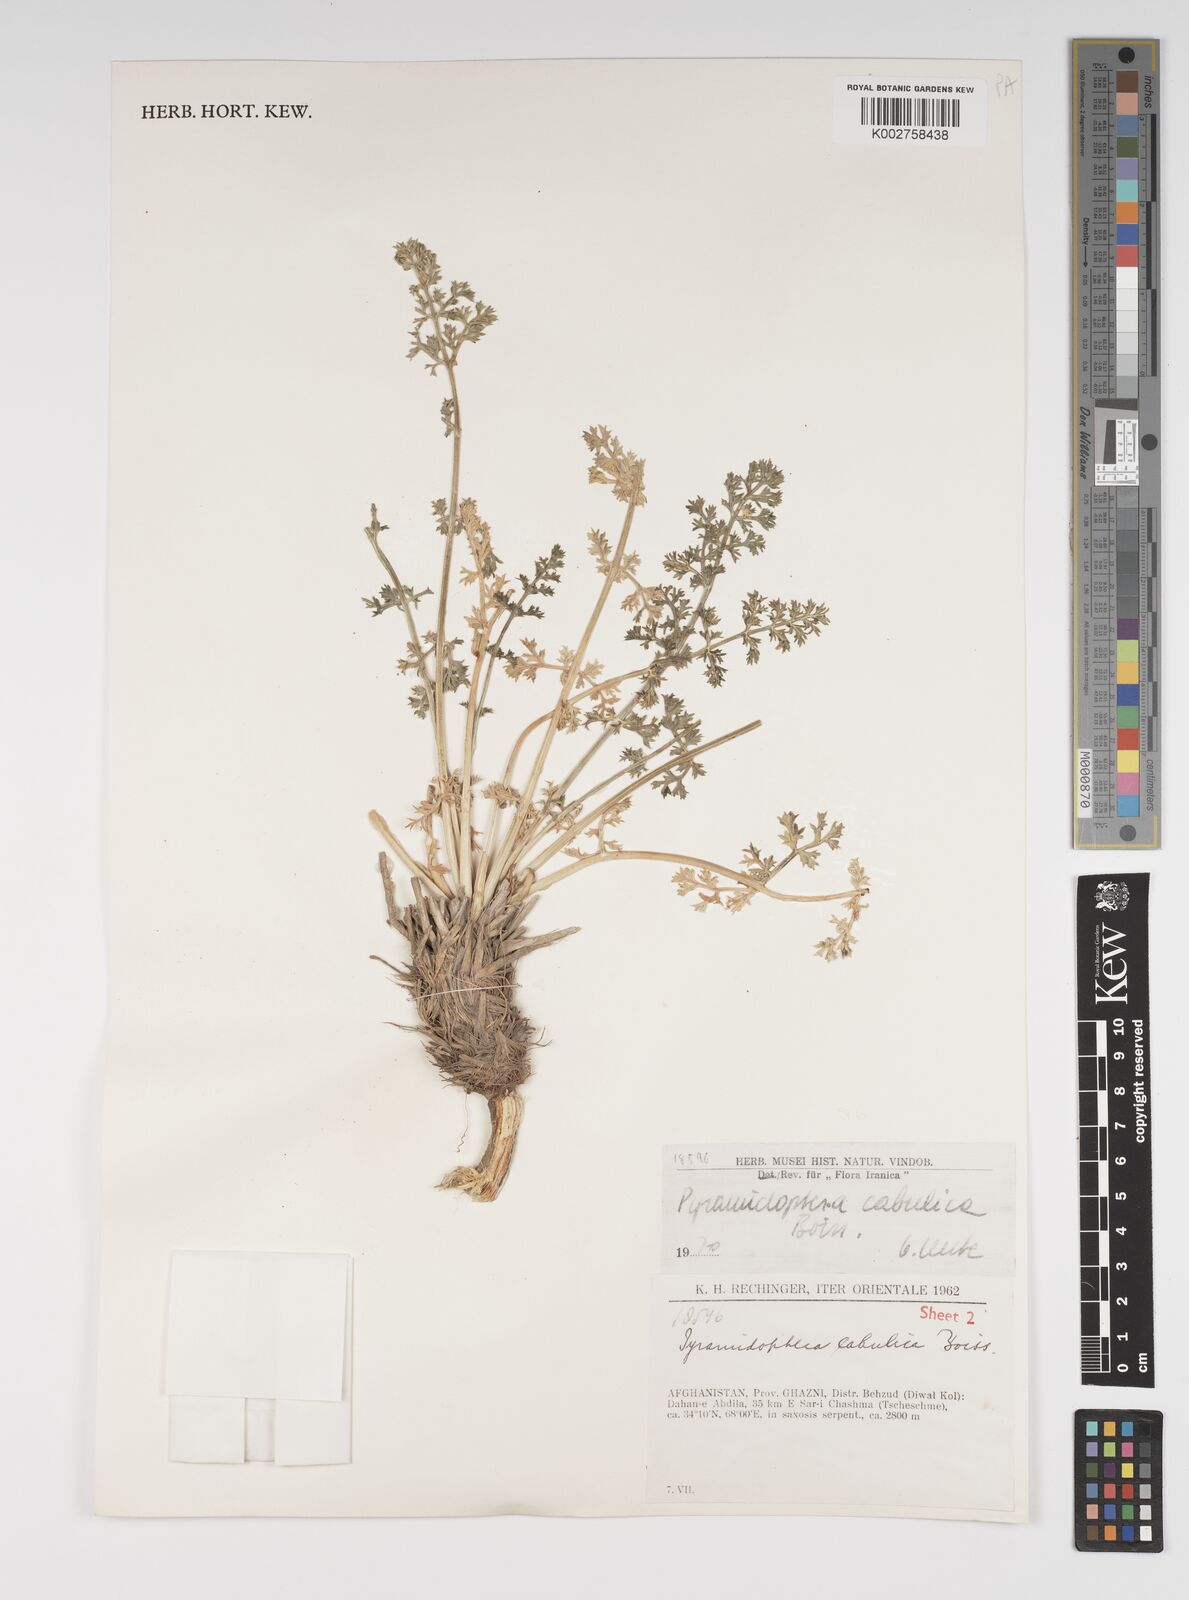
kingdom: Plantae
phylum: Tracheophyta
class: Magnoliopsida
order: Apiales
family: Apiaceae
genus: Pyramidoptera
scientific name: Pyramidoptera cabulica
